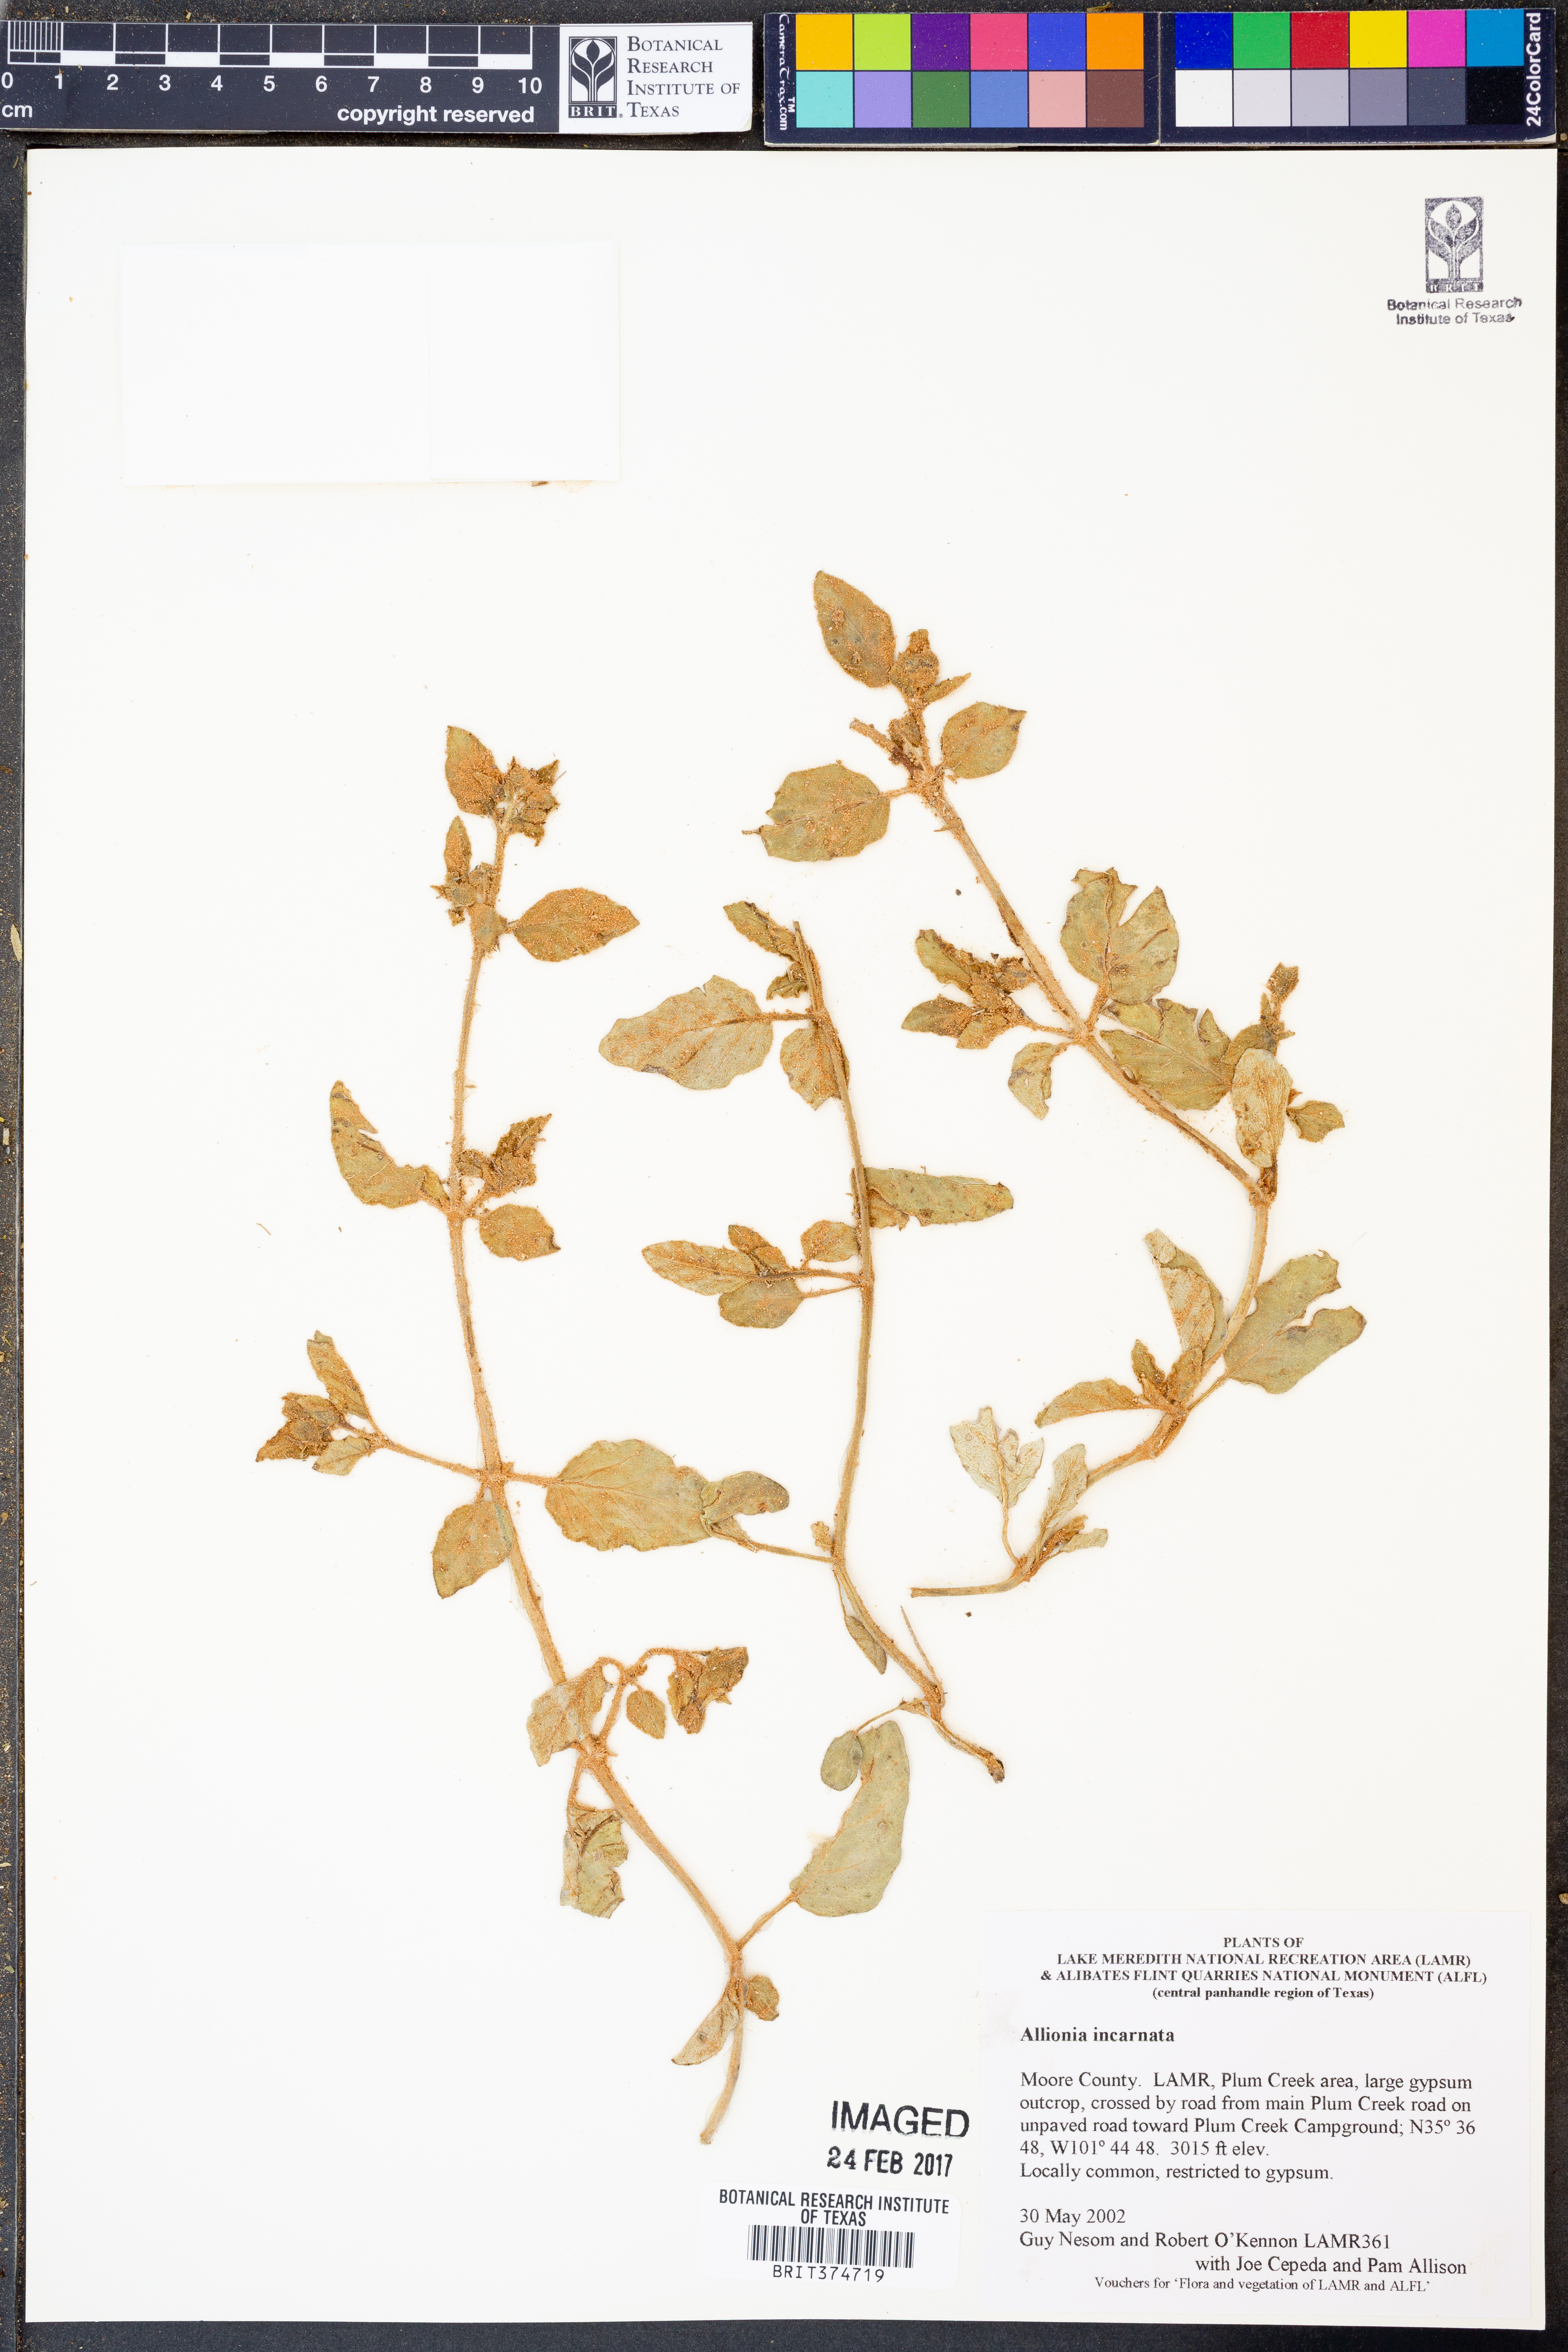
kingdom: Plantae
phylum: Tracheophyta
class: Magnoliopsida
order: Caryophyllales
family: Nyctaginaceae
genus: Allionia
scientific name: Allionia incarnata
